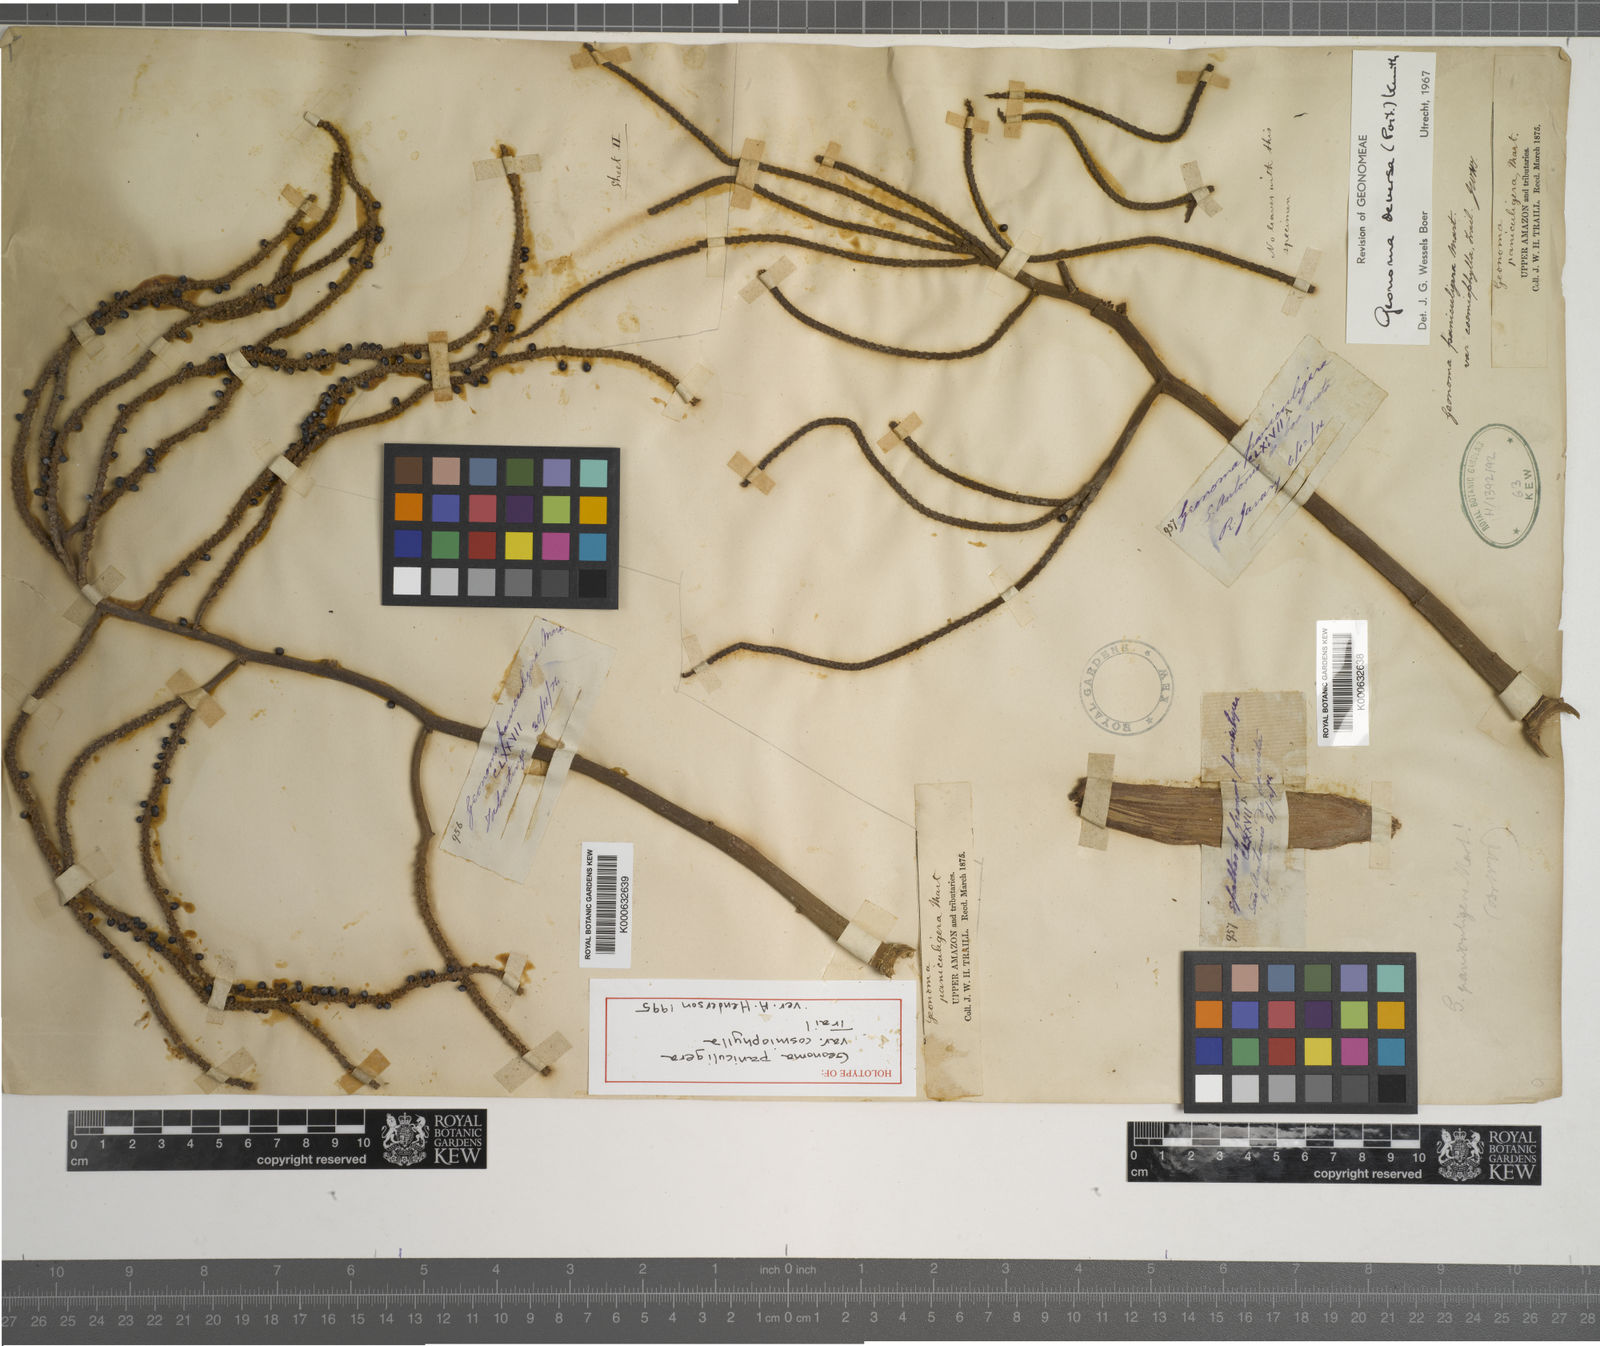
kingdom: Plantae
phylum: Tracheophyta
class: Liliopsida
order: Arecales
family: Arecaceae
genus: Geonoma
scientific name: Geonoma deversa
